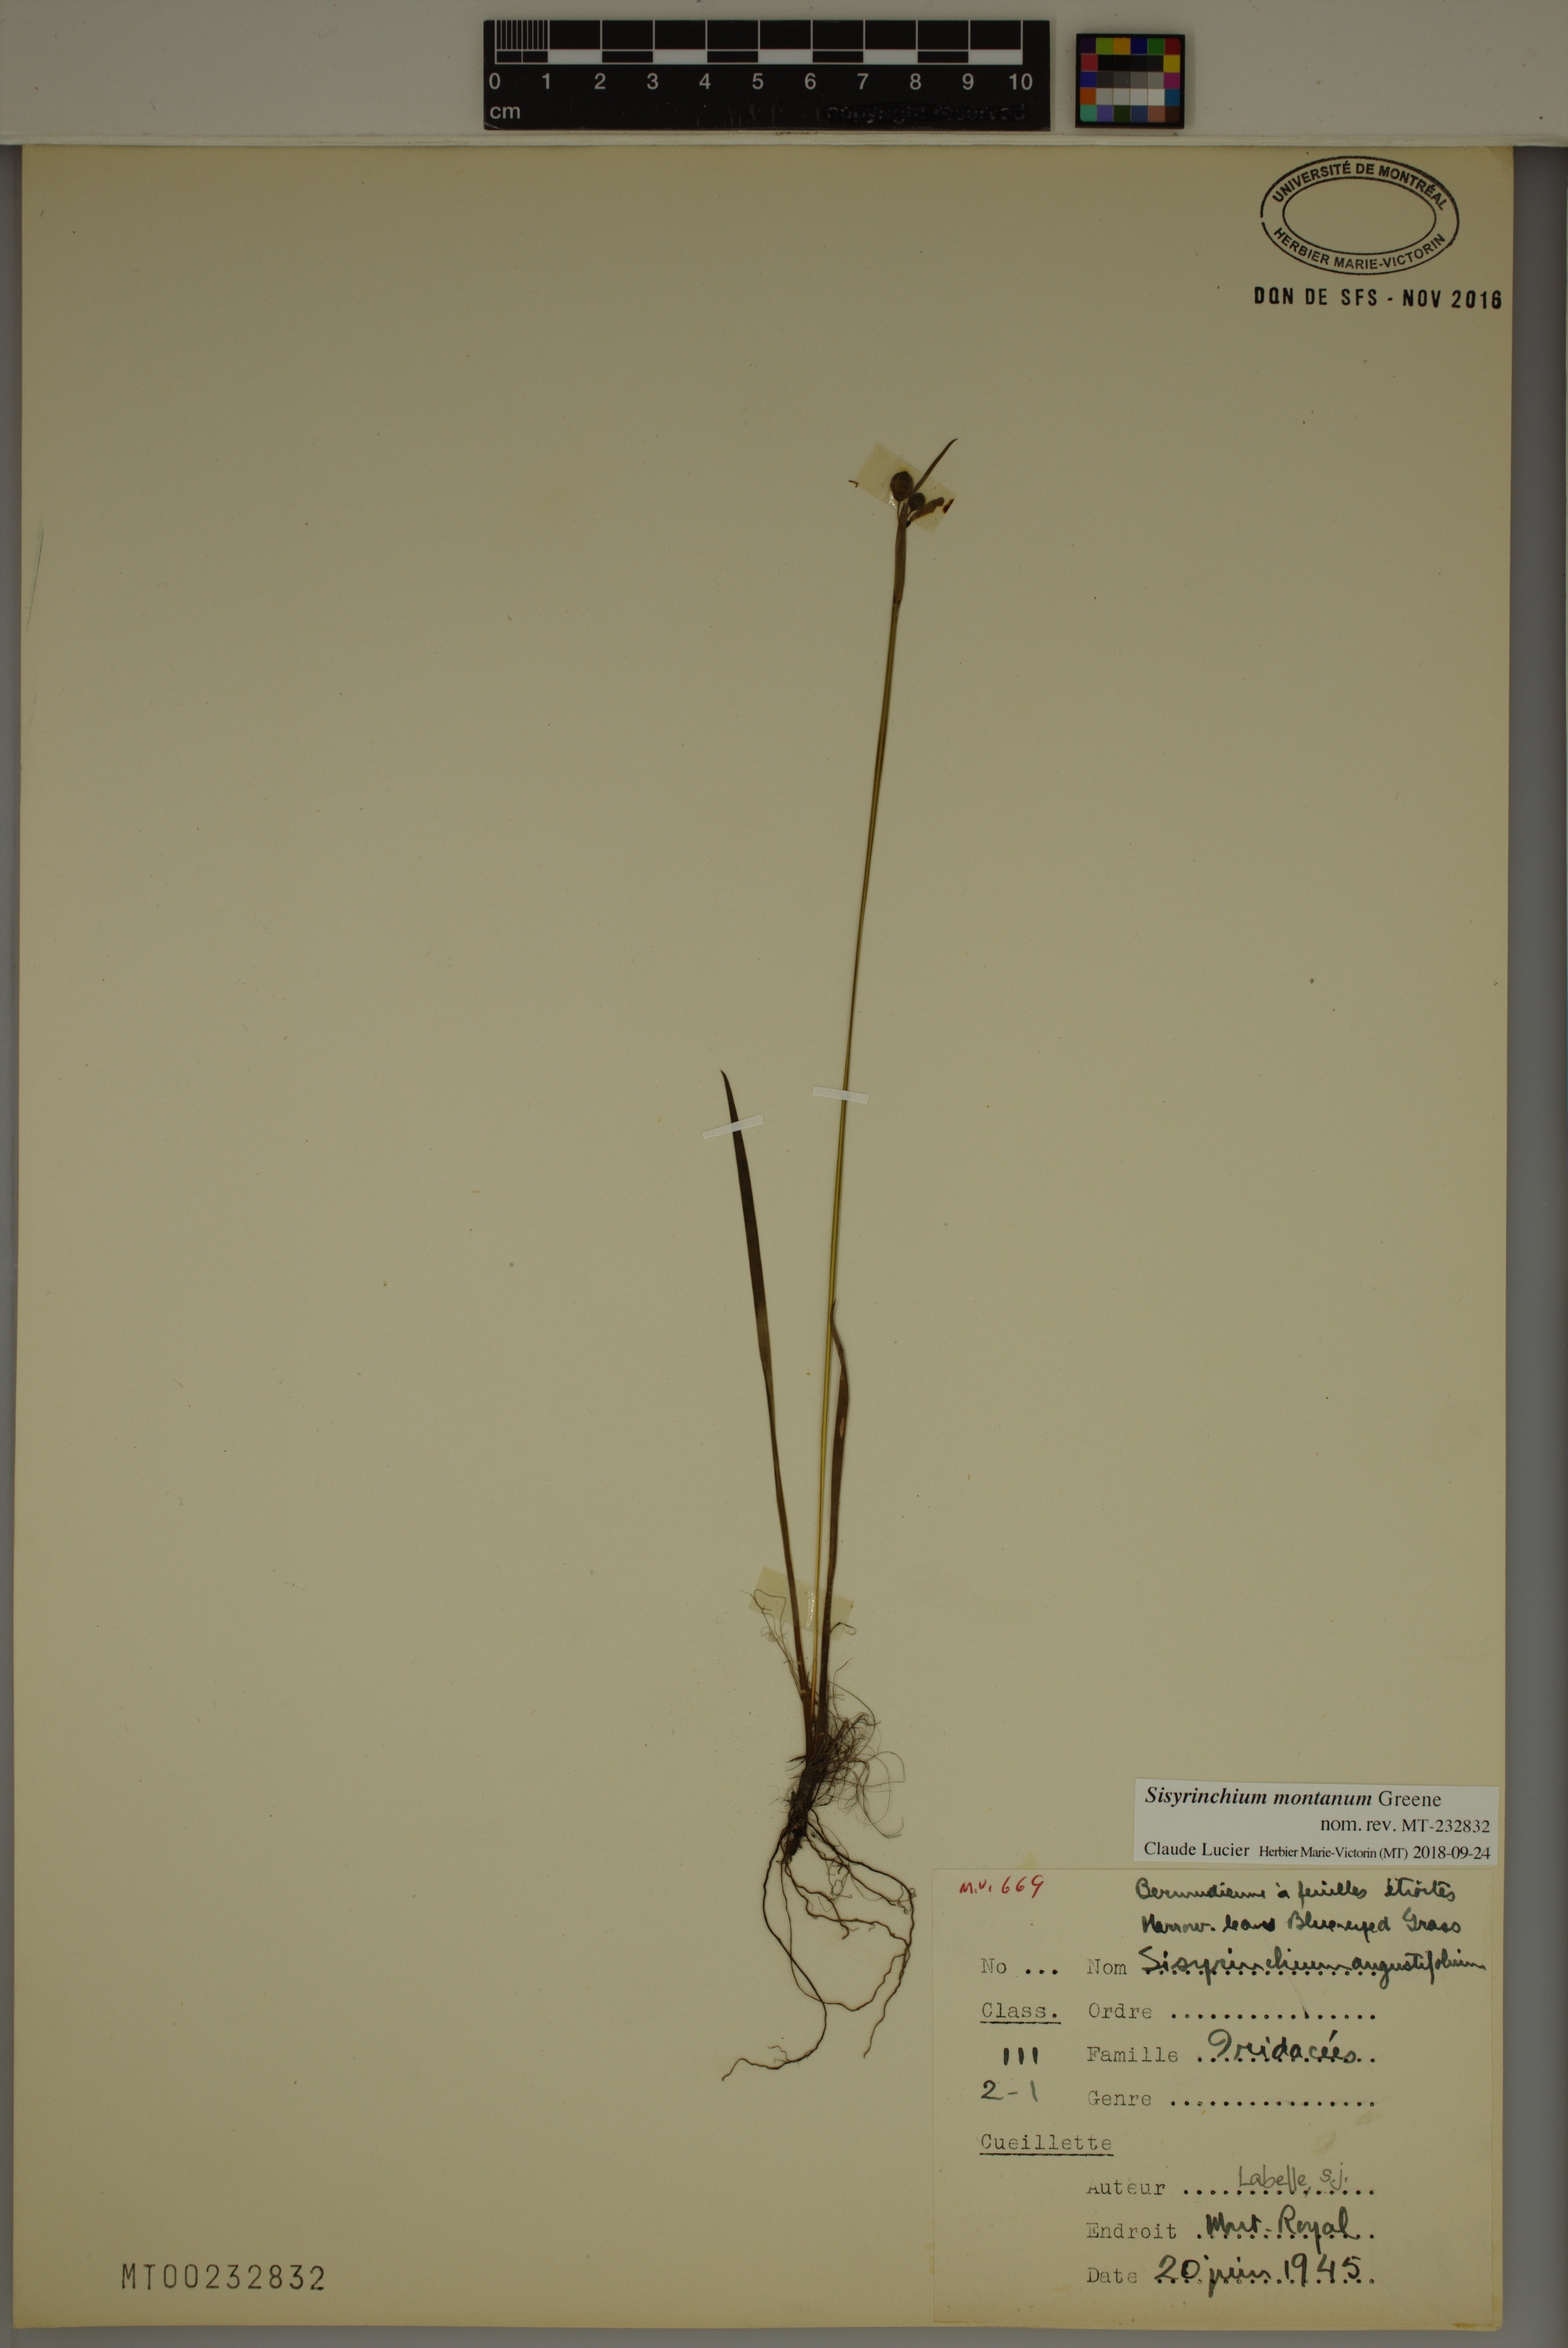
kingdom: Plantae
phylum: Tracheophyta
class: Liliopsida
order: Asparagales
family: Iridaceae
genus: Sisyrinchium
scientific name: Sisyrinchium montanum
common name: American blue-eyed-grass
